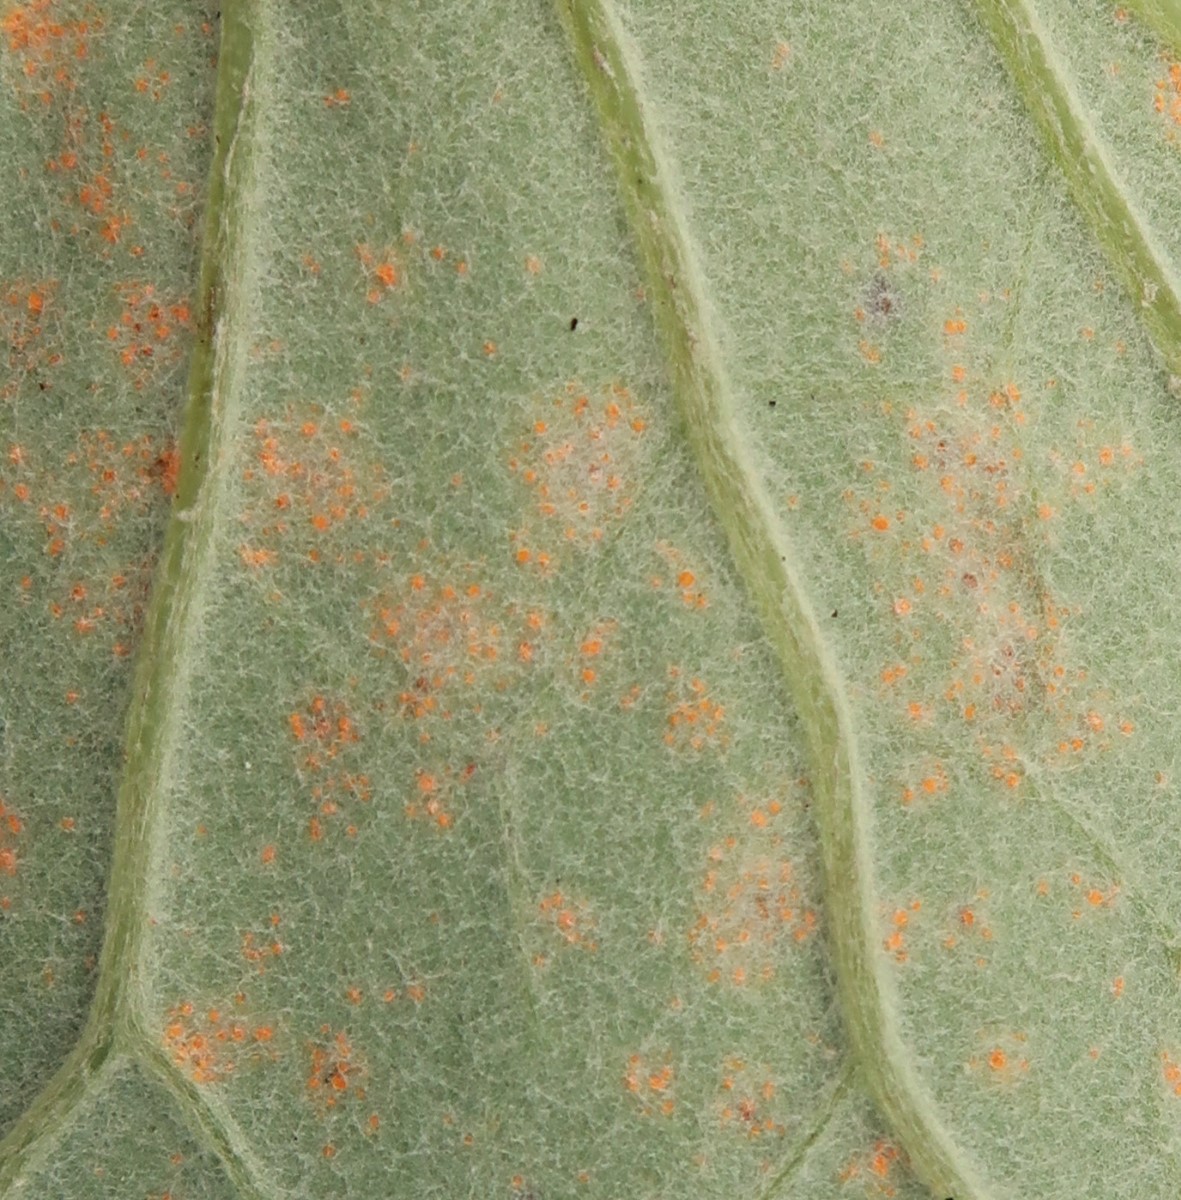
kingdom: Fungi
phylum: Basidiomycota
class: Pucciniomycetes
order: Pucciniales
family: Coleosporiaceae
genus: Coleosporium
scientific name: Coleosporium tussilaginis
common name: almindelig fyrrenålerust
